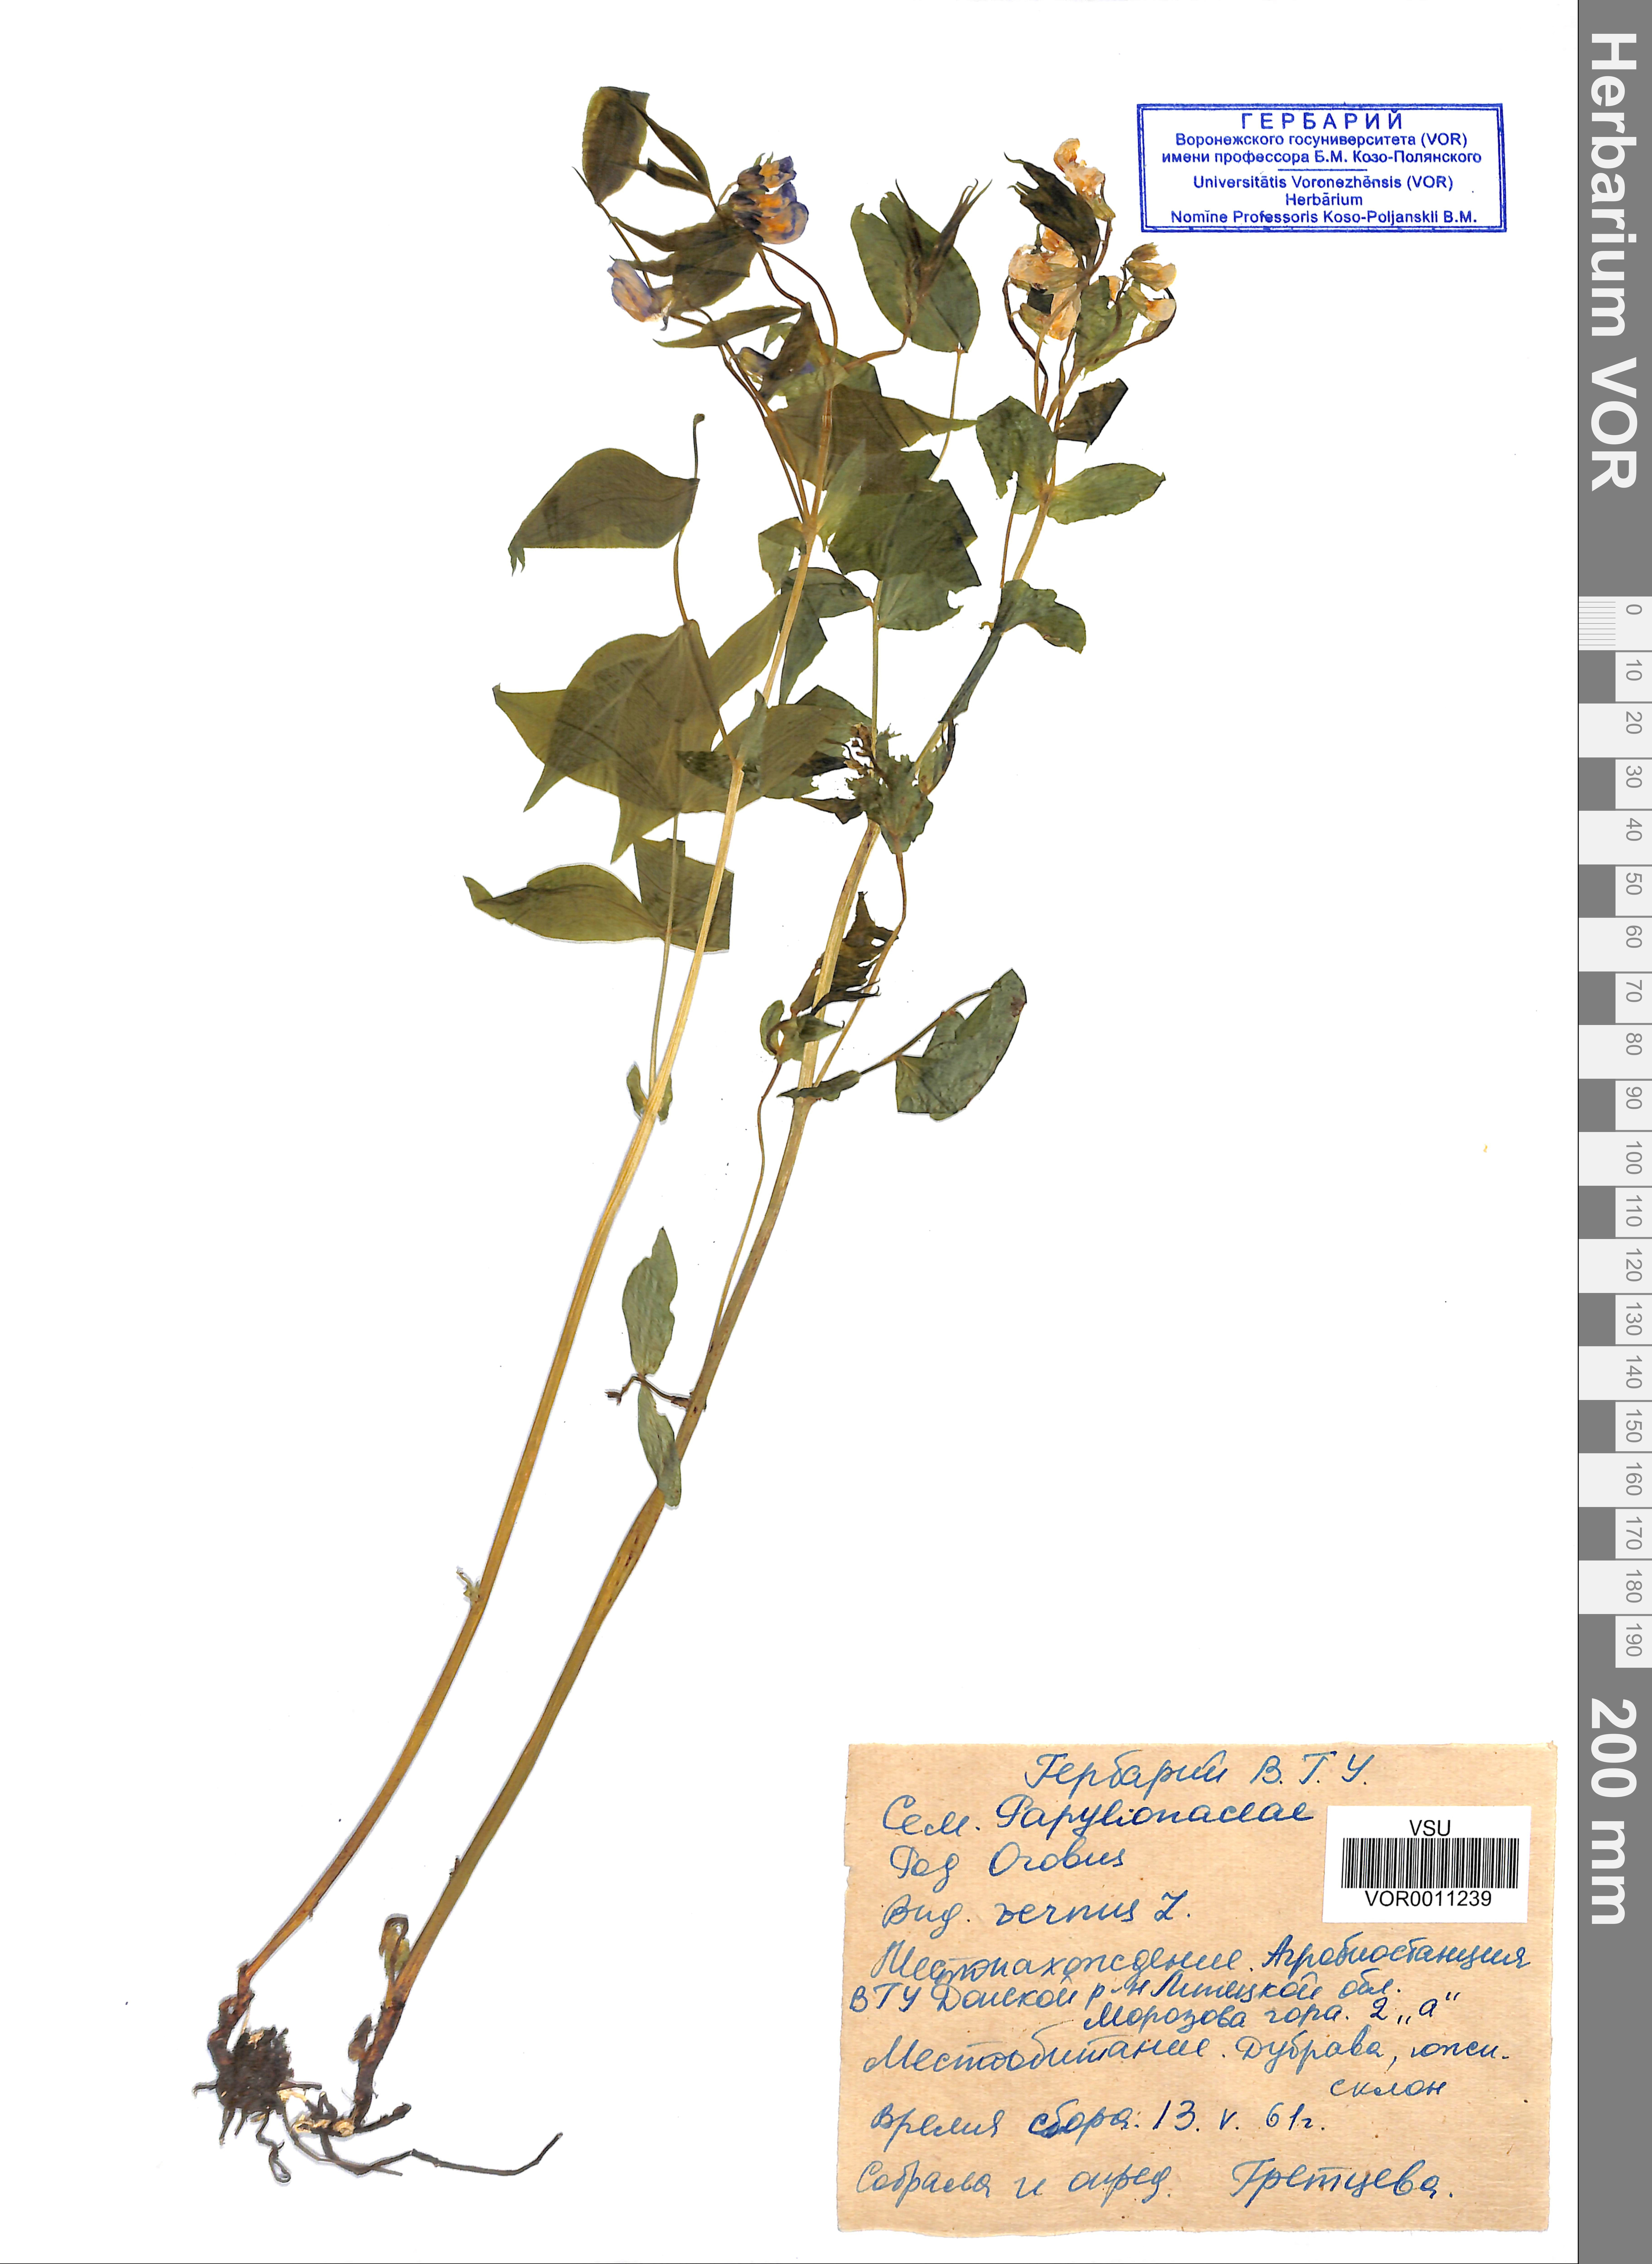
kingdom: Plantae
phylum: Tracheophyta
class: Magnoliopsida
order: Fabales
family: Fabaceae
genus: Lathyrus
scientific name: Lathyrus vernus
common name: Spring pea
